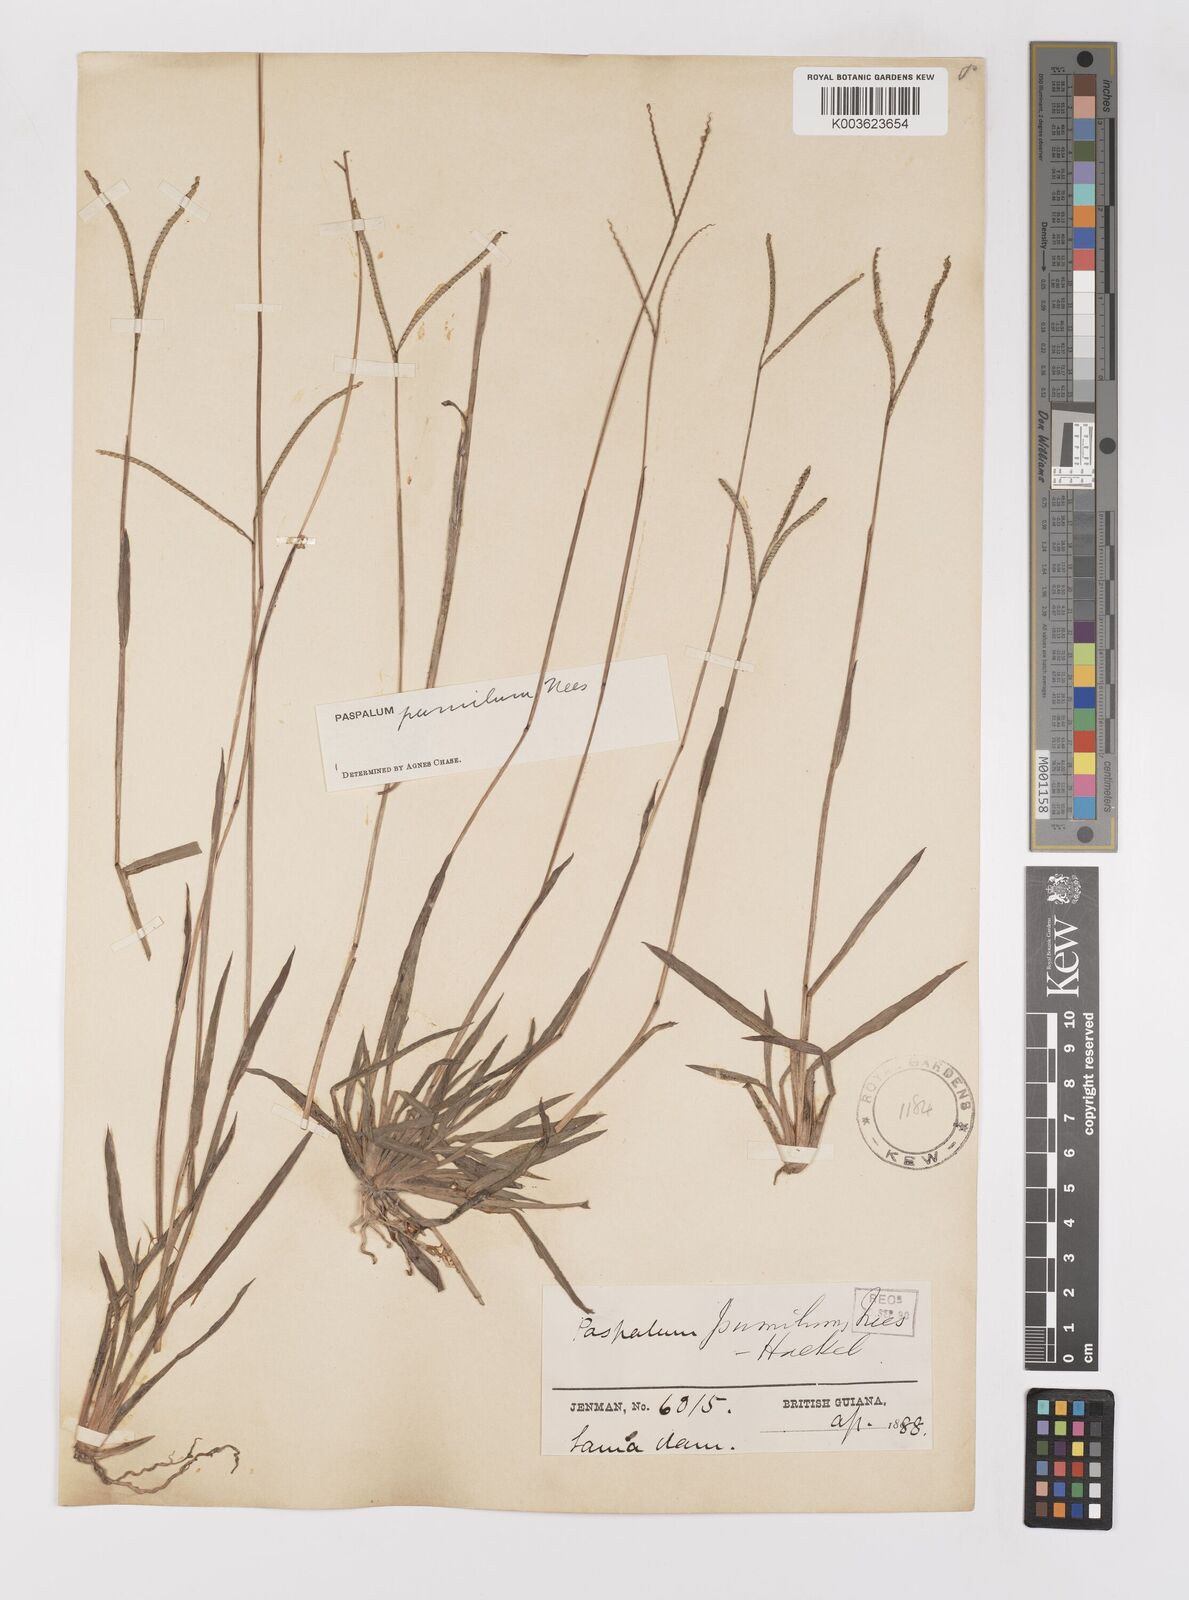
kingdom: Plantae
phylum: Tracheophyta
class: Liliopsida
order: Poales
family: Poaceae
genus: Paspalum
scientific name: Paspalum pumilum
